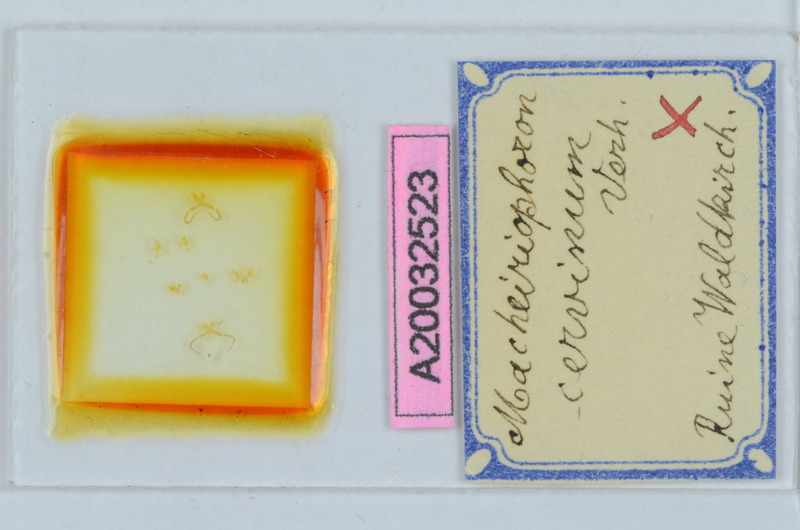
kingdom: Animalia
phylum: Arthropoda
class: Diplopoda
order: Chordeumatida
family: Craspedosomatidae
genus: Rhymogona
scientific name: Rhymogona montivaga
